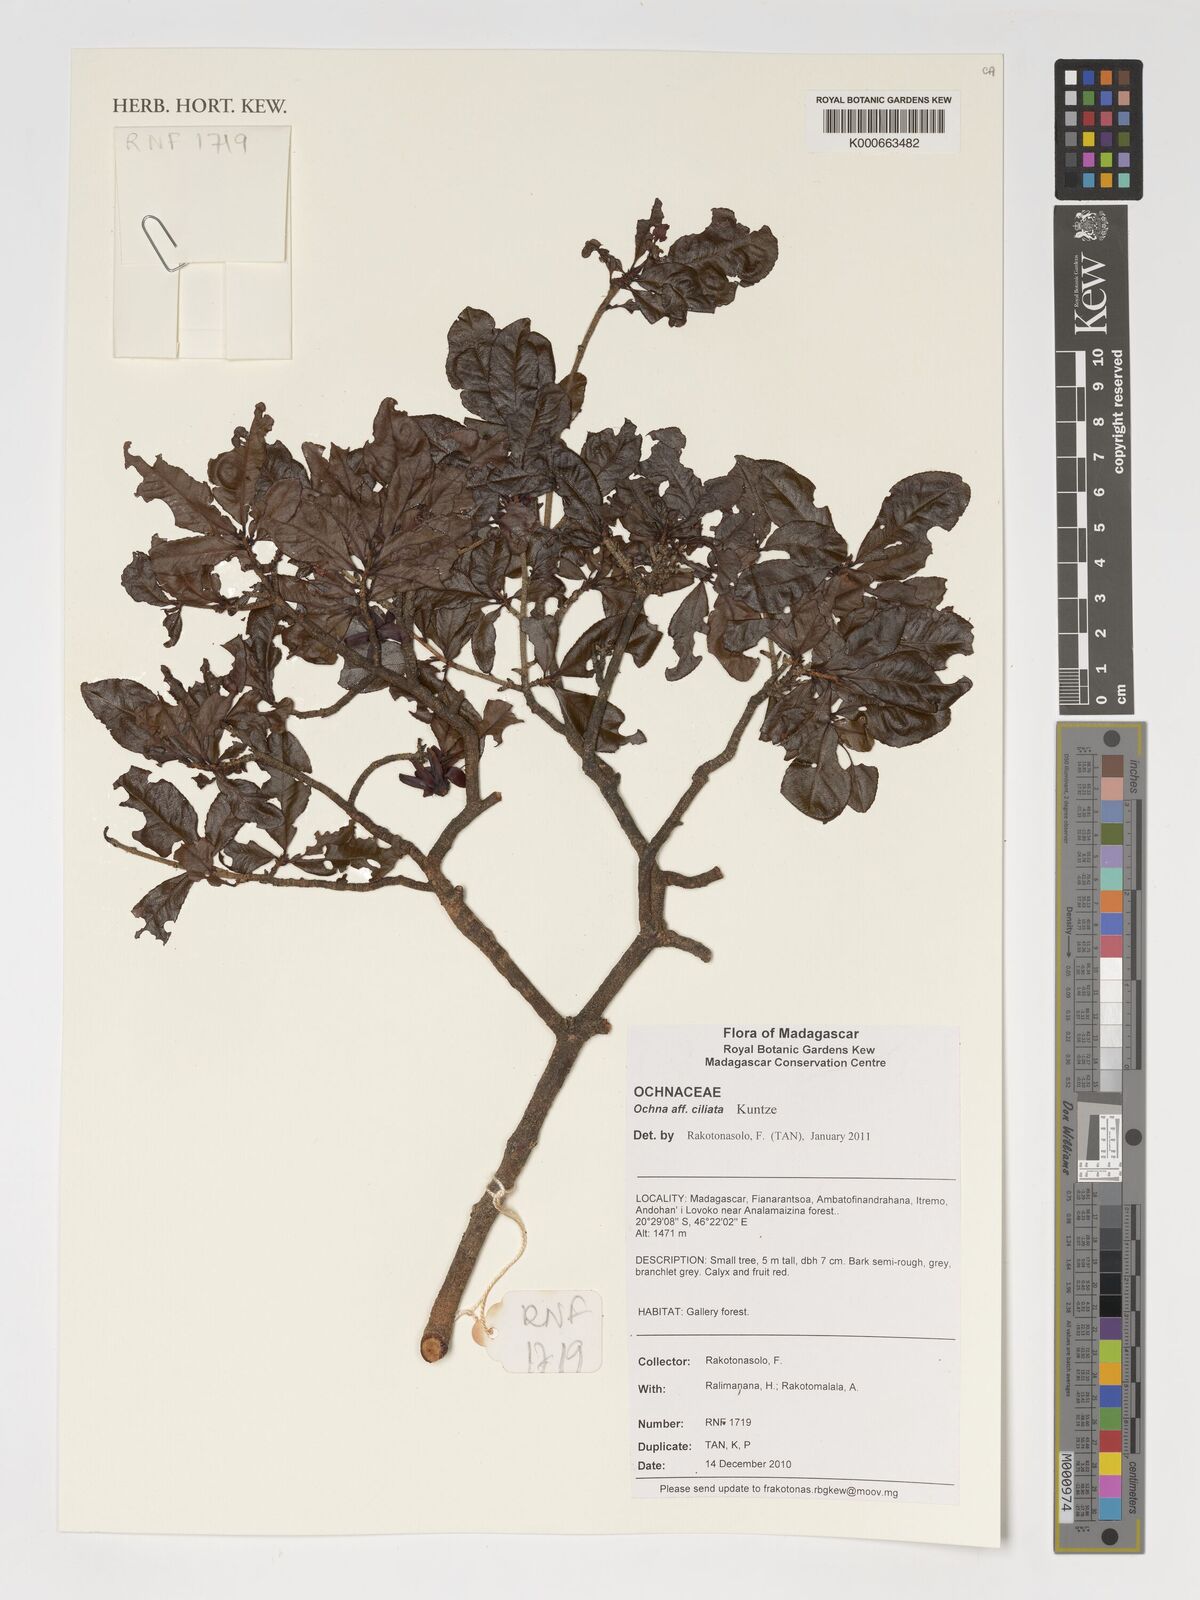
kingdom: Plantae
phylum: Tracheophyta
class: Magnoliopsida
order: Malpighiales
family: Ochnaceae
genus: Ochna
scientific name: Ochna ciliata
